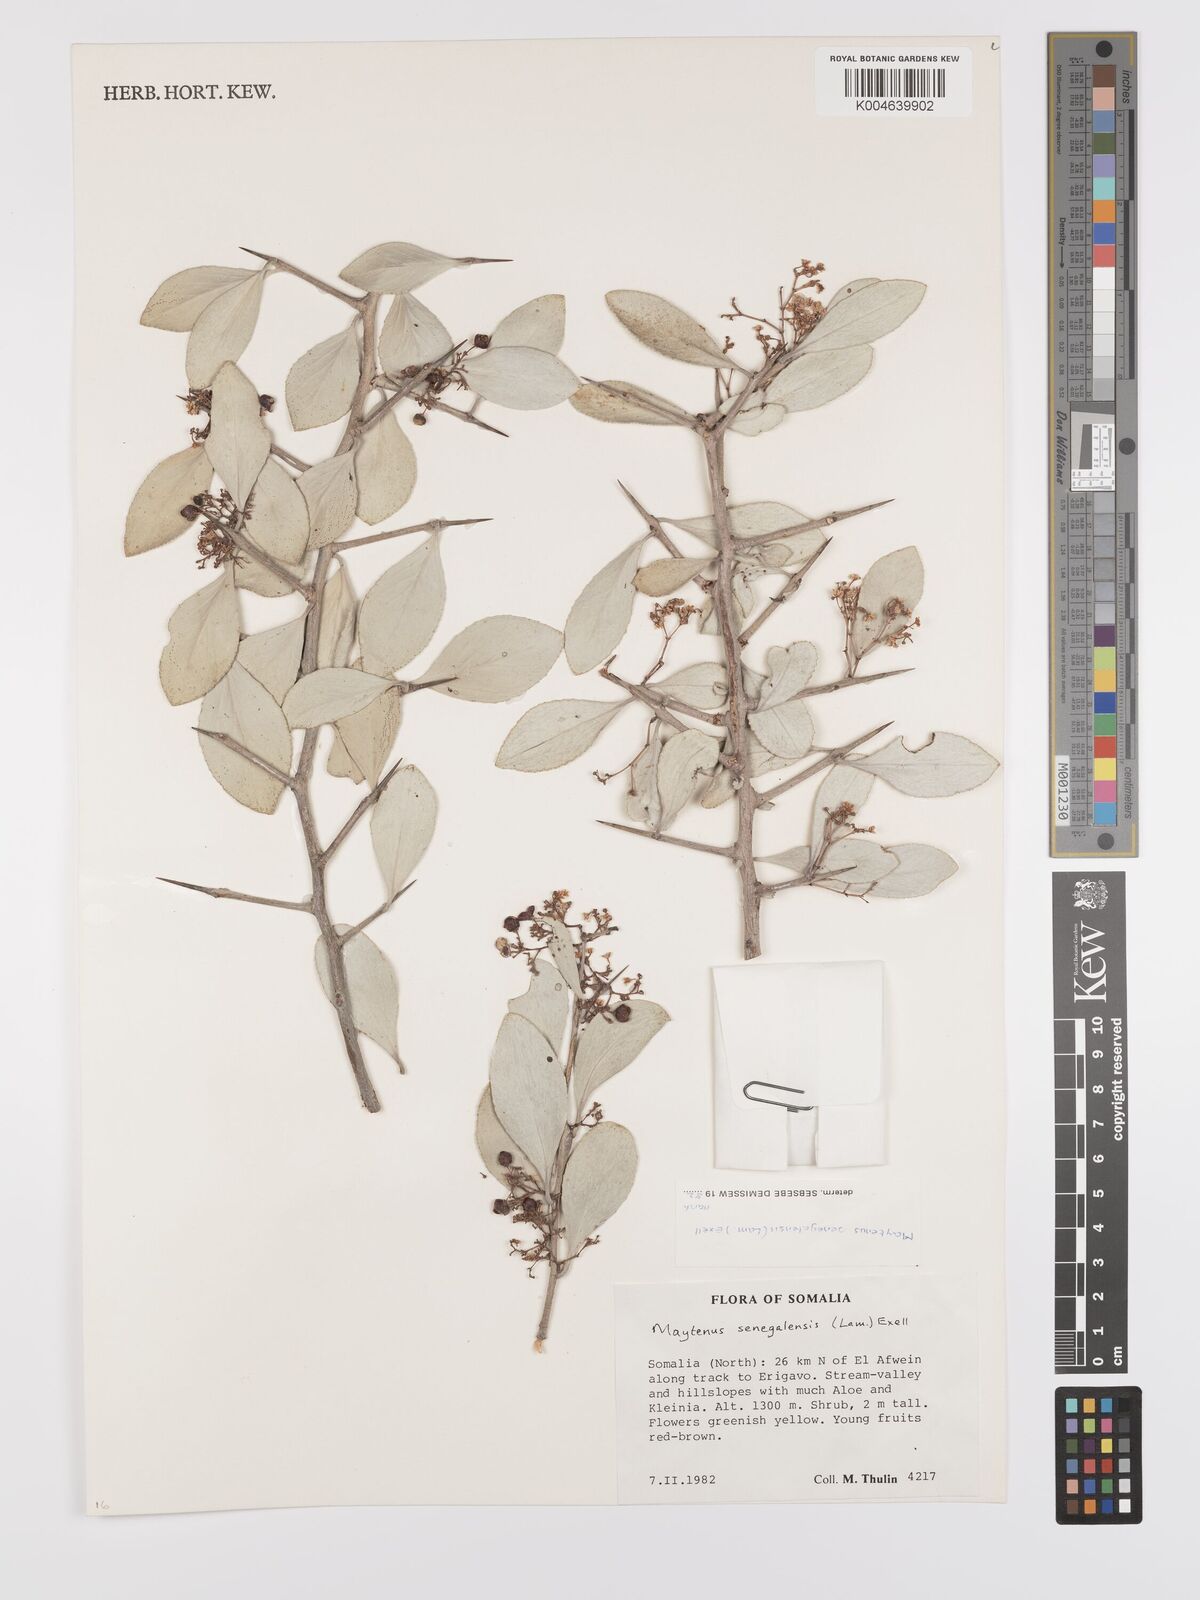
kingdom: Plantae
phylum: Tracheophyta
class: Magnoliopsida
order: Celastrales
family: Celastraceae
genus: Gymnosporia
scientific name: Gymnosporia senegalensis
